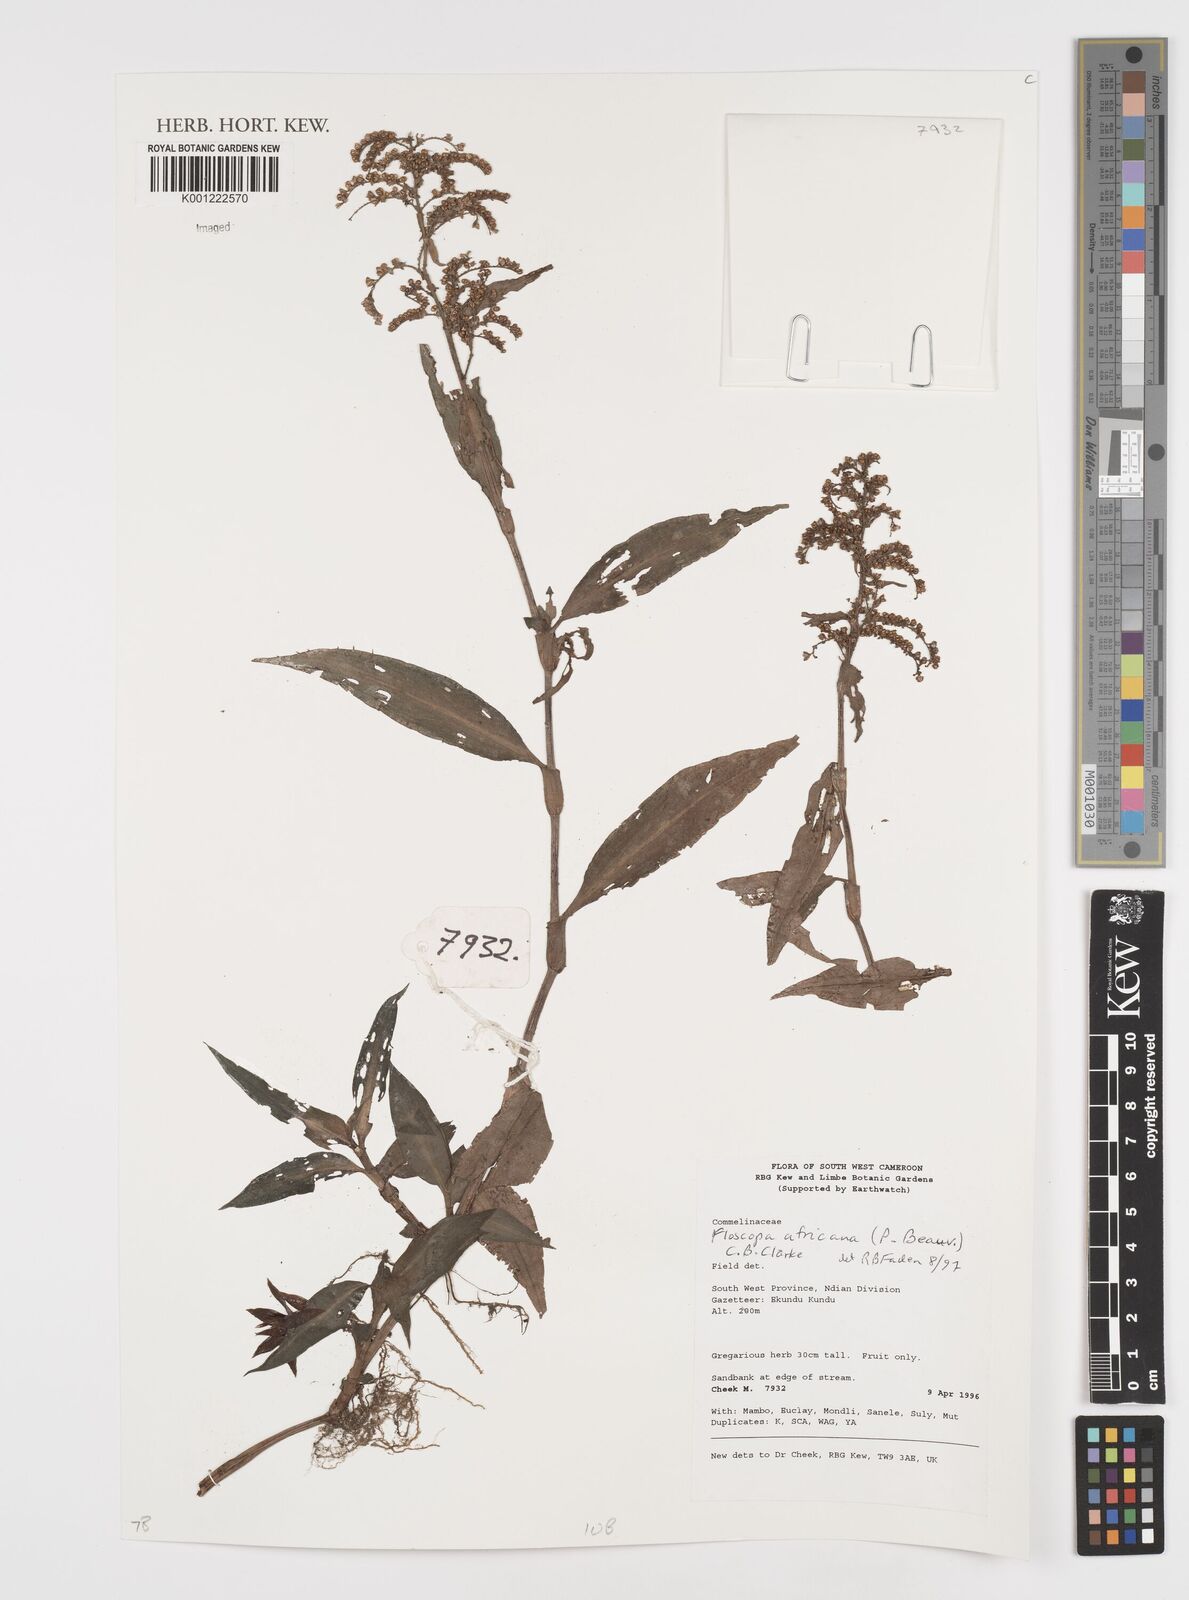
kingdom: Plantae
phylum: Tracheophyta
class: Liliopsida
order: Commelinales
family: Commelinaceae
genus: Floscopa
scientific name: Floscopa africana
